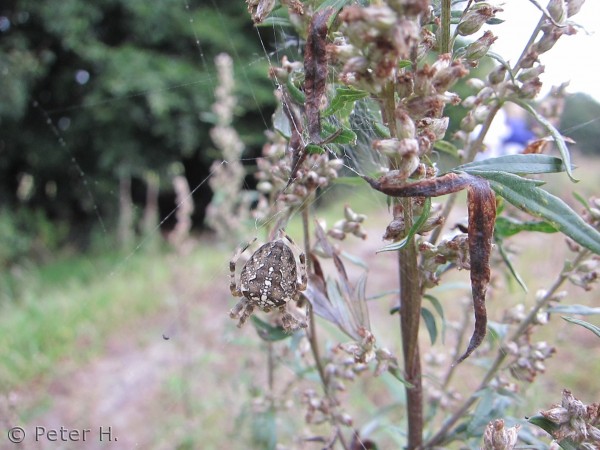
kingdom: Animalia
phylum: Arthropoda
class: Arachnida
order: Araneae
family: Araneidae
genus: Araneus
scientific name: Araneus diadematus
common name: Korsedderkop
